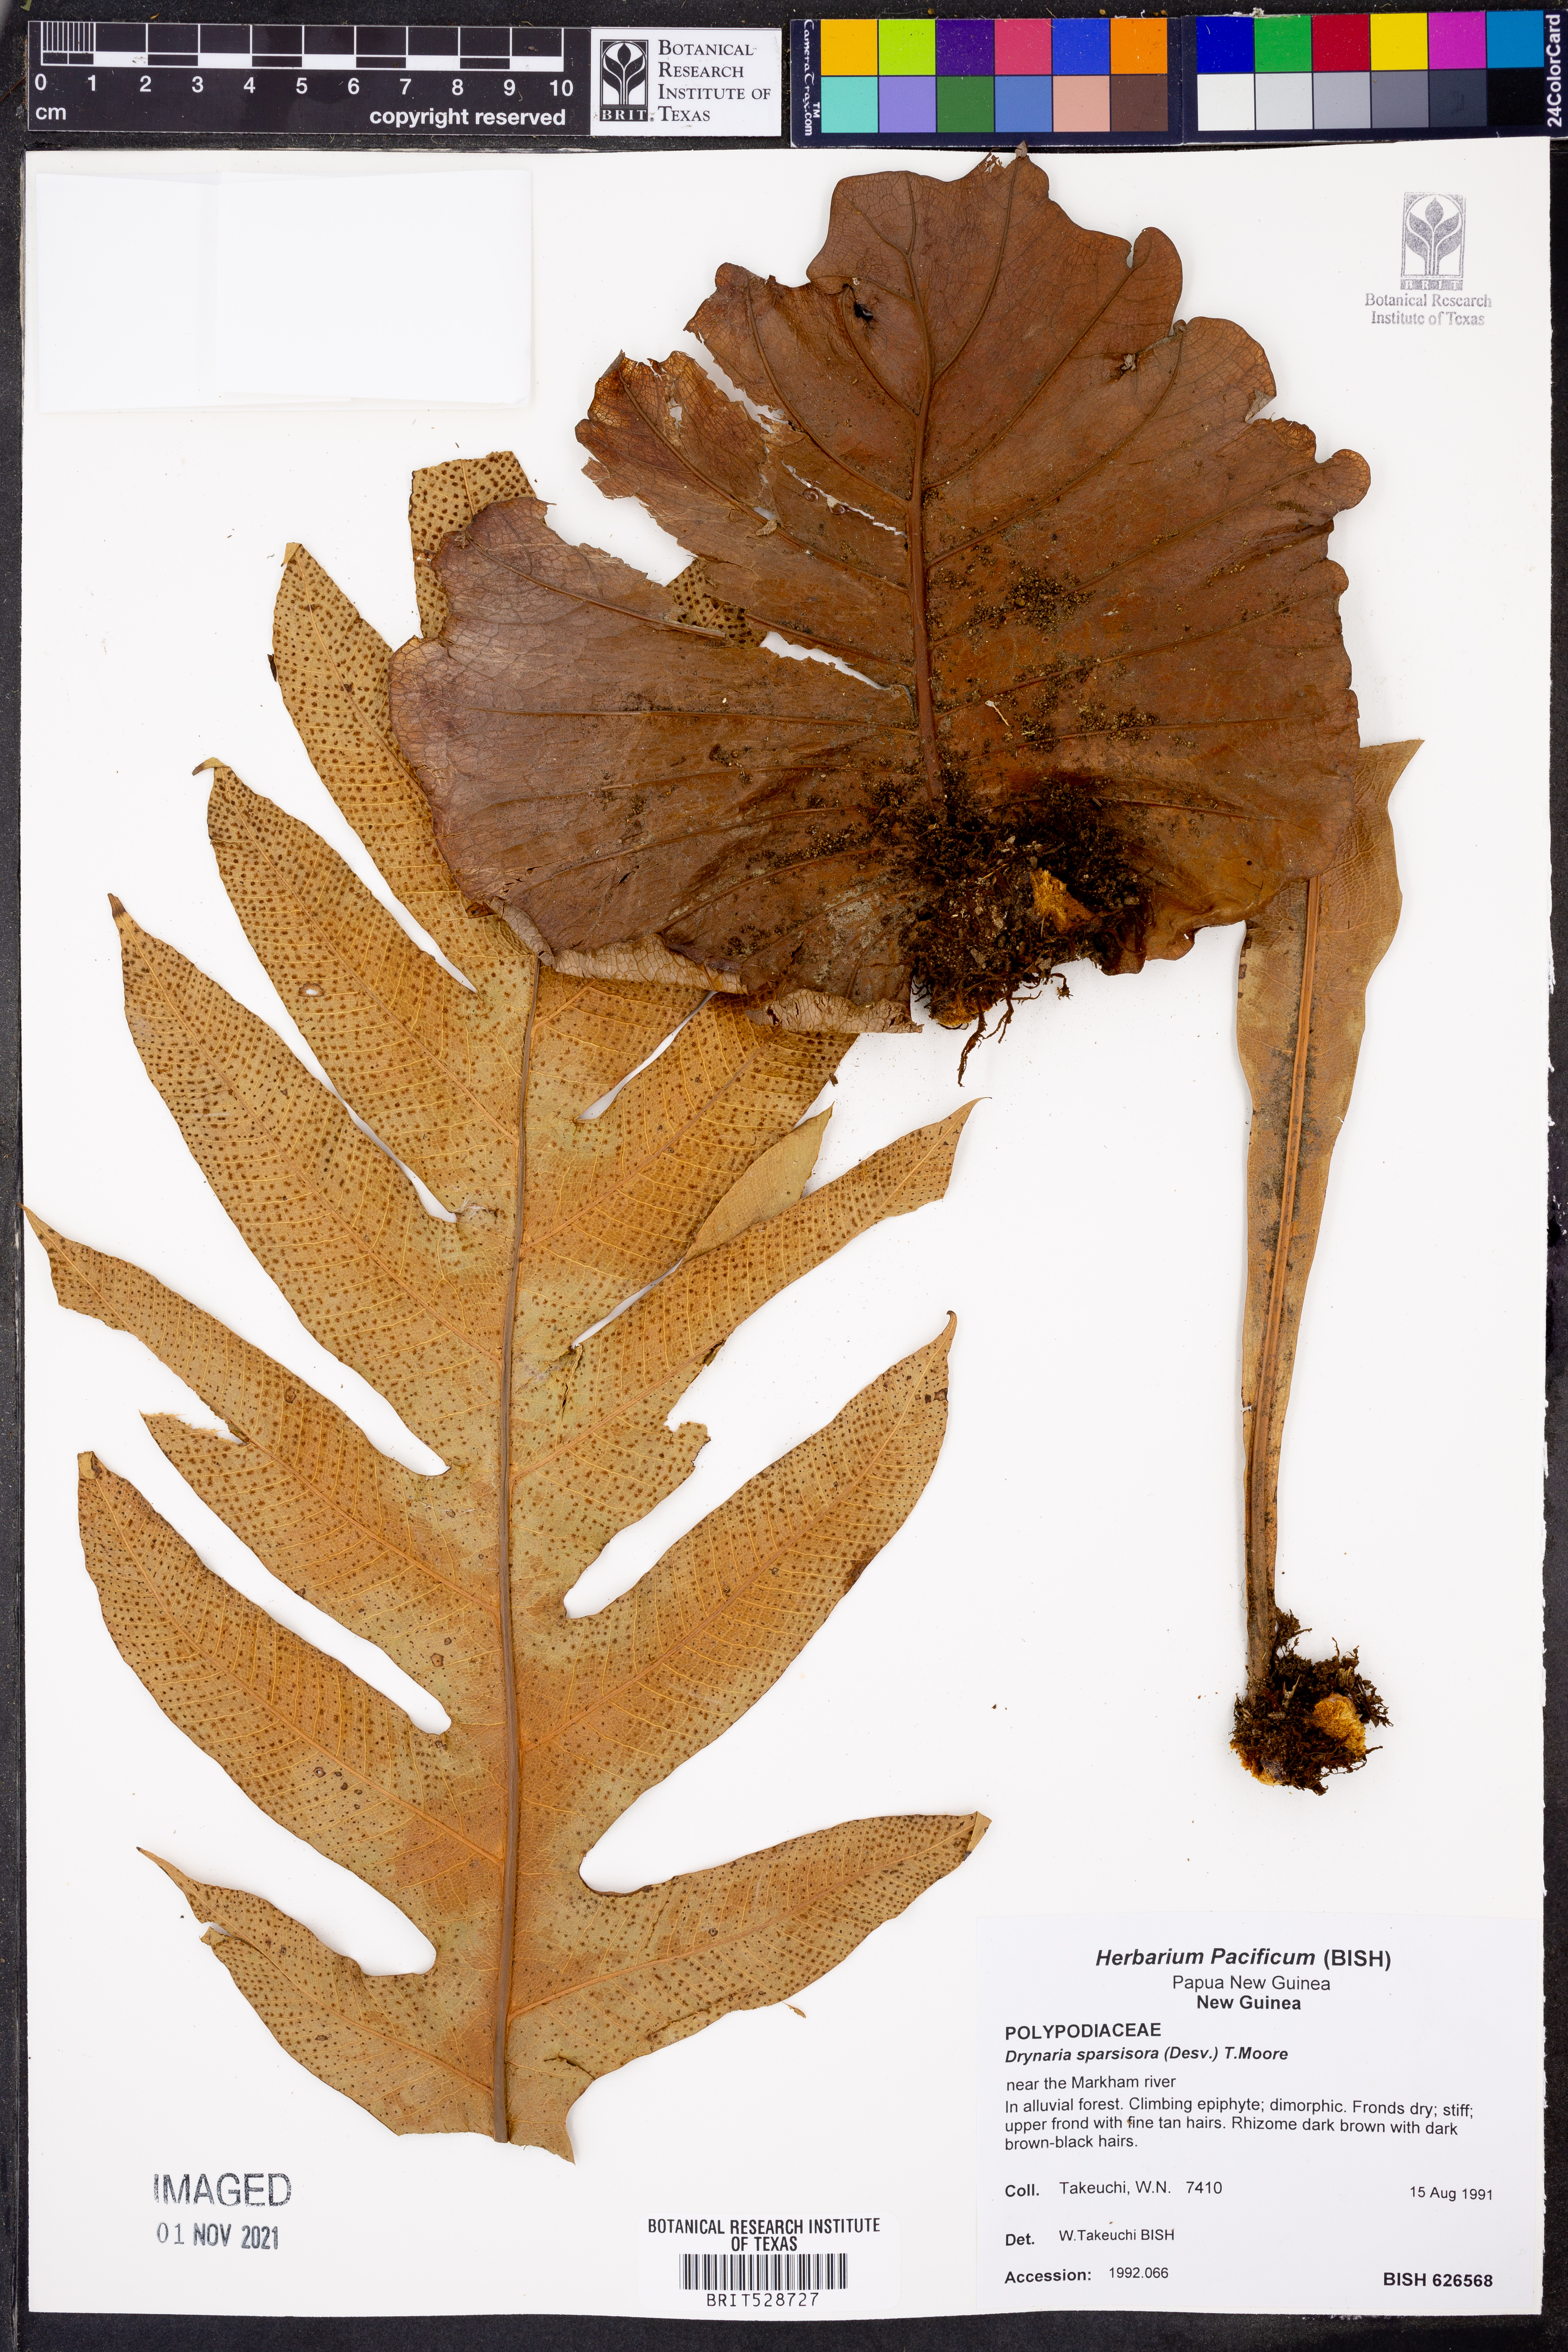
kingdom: Plantae
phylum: Tracheophyta
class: Polypodiopsida
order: Polypodiales
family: Polypodiaceae
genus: Drynaria
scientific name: Drynaria sparsisora
